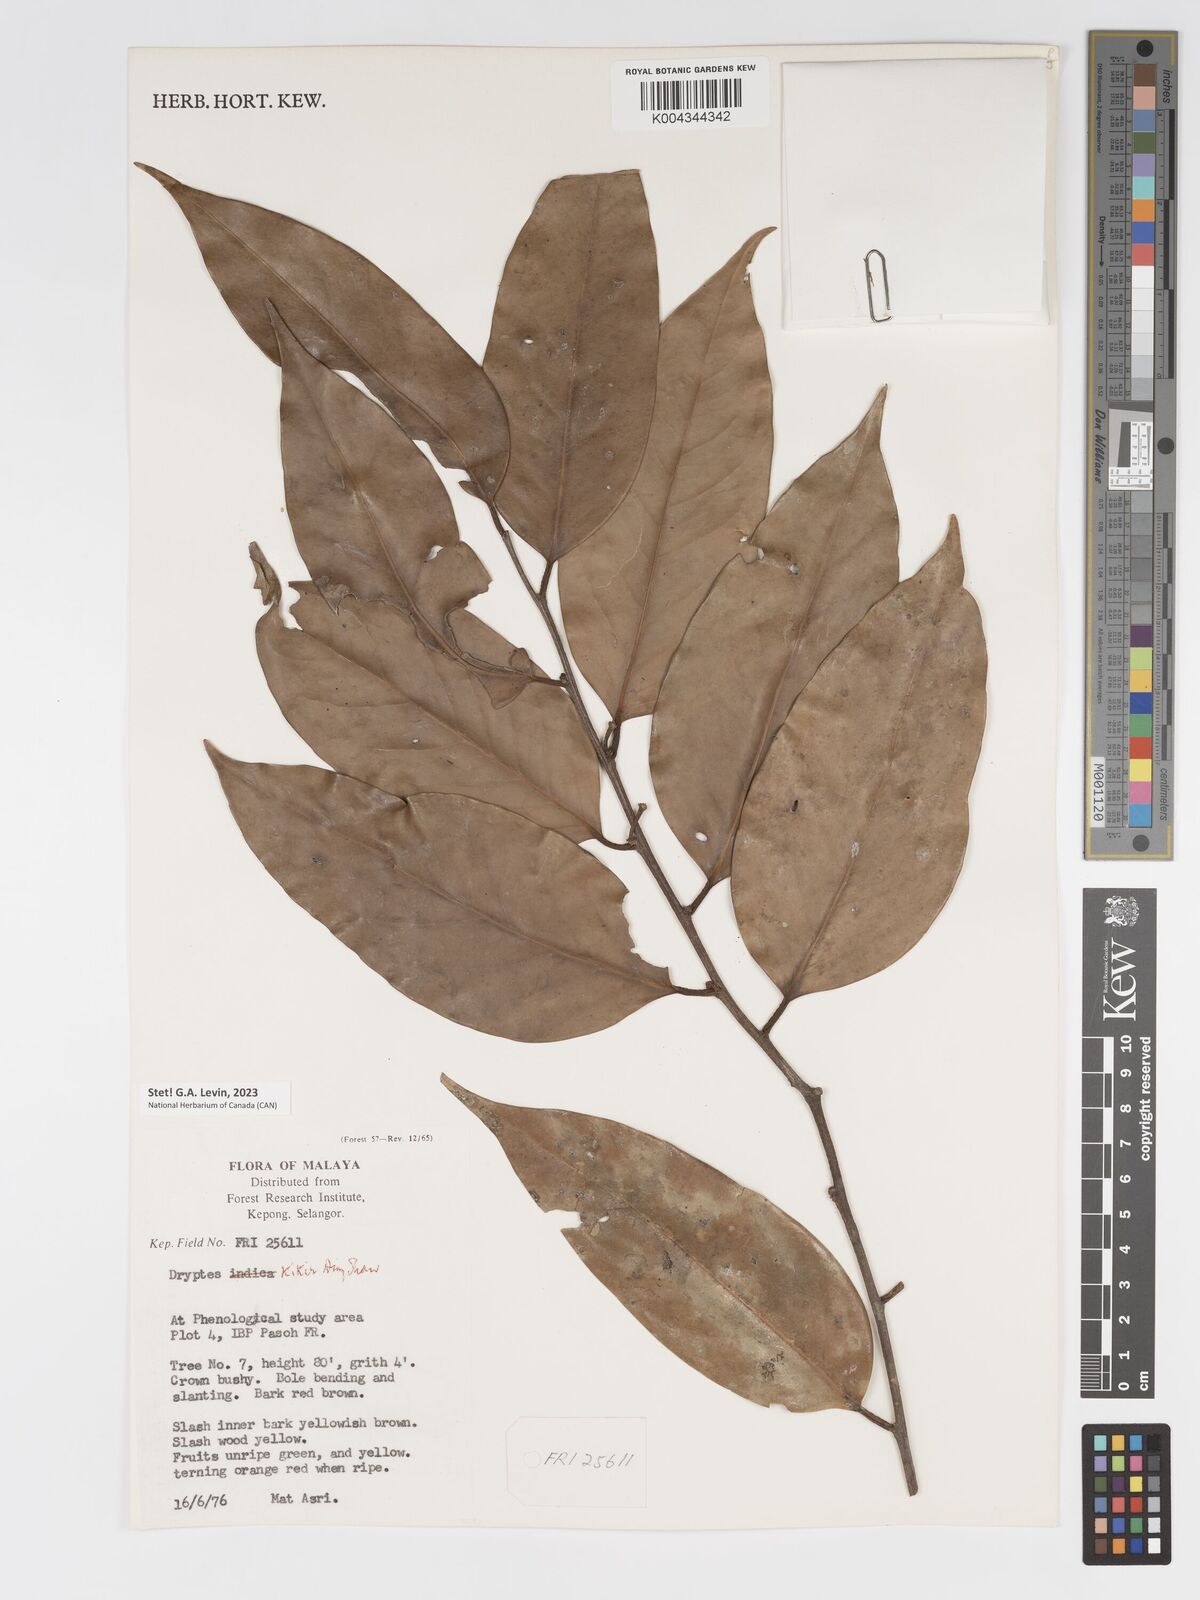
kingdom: Plantae
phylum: Tracheophyta
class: Magnoliopsida
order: Malpighiales
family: Putranjivaceae
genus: Drypetes
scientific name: Drypetes kikir
